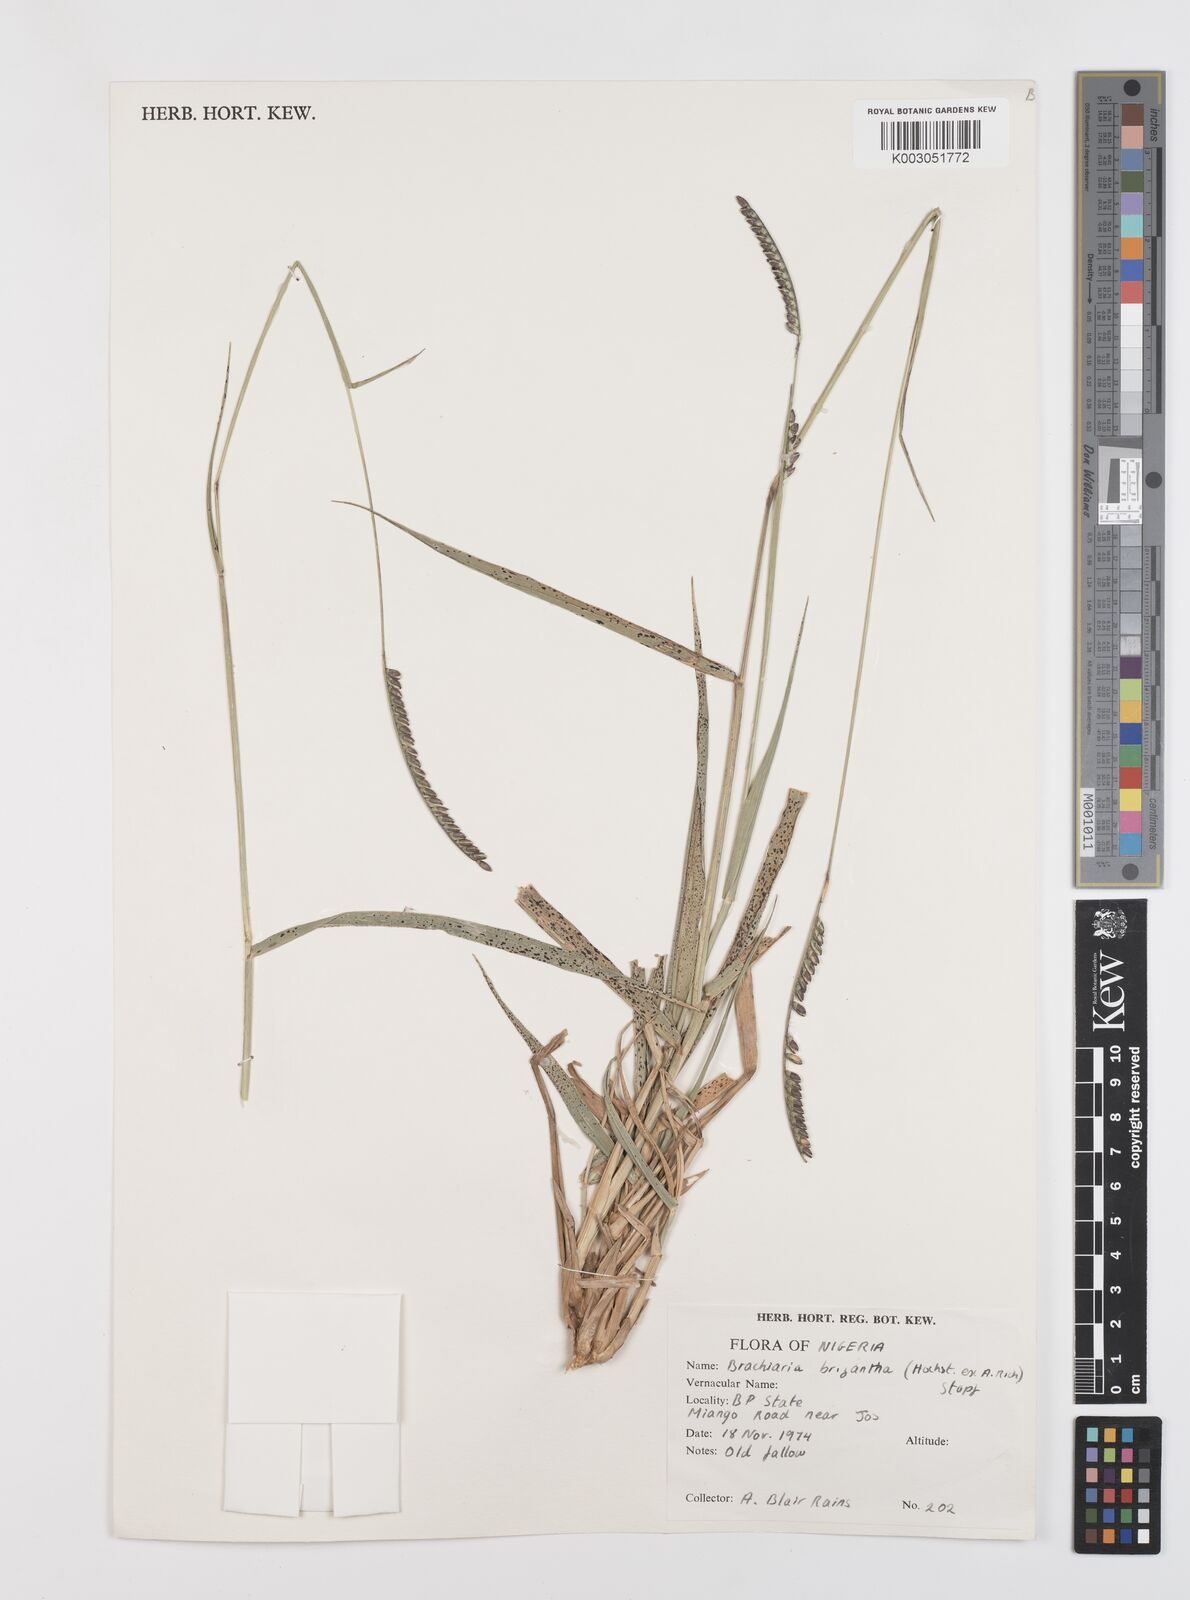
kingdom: Plantae
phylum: Tracheophyta
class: Liliopsida
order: Poales
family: Poaceae
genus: Urochloa
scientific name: Urochloa brizantha
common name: Palisade signalgrass
